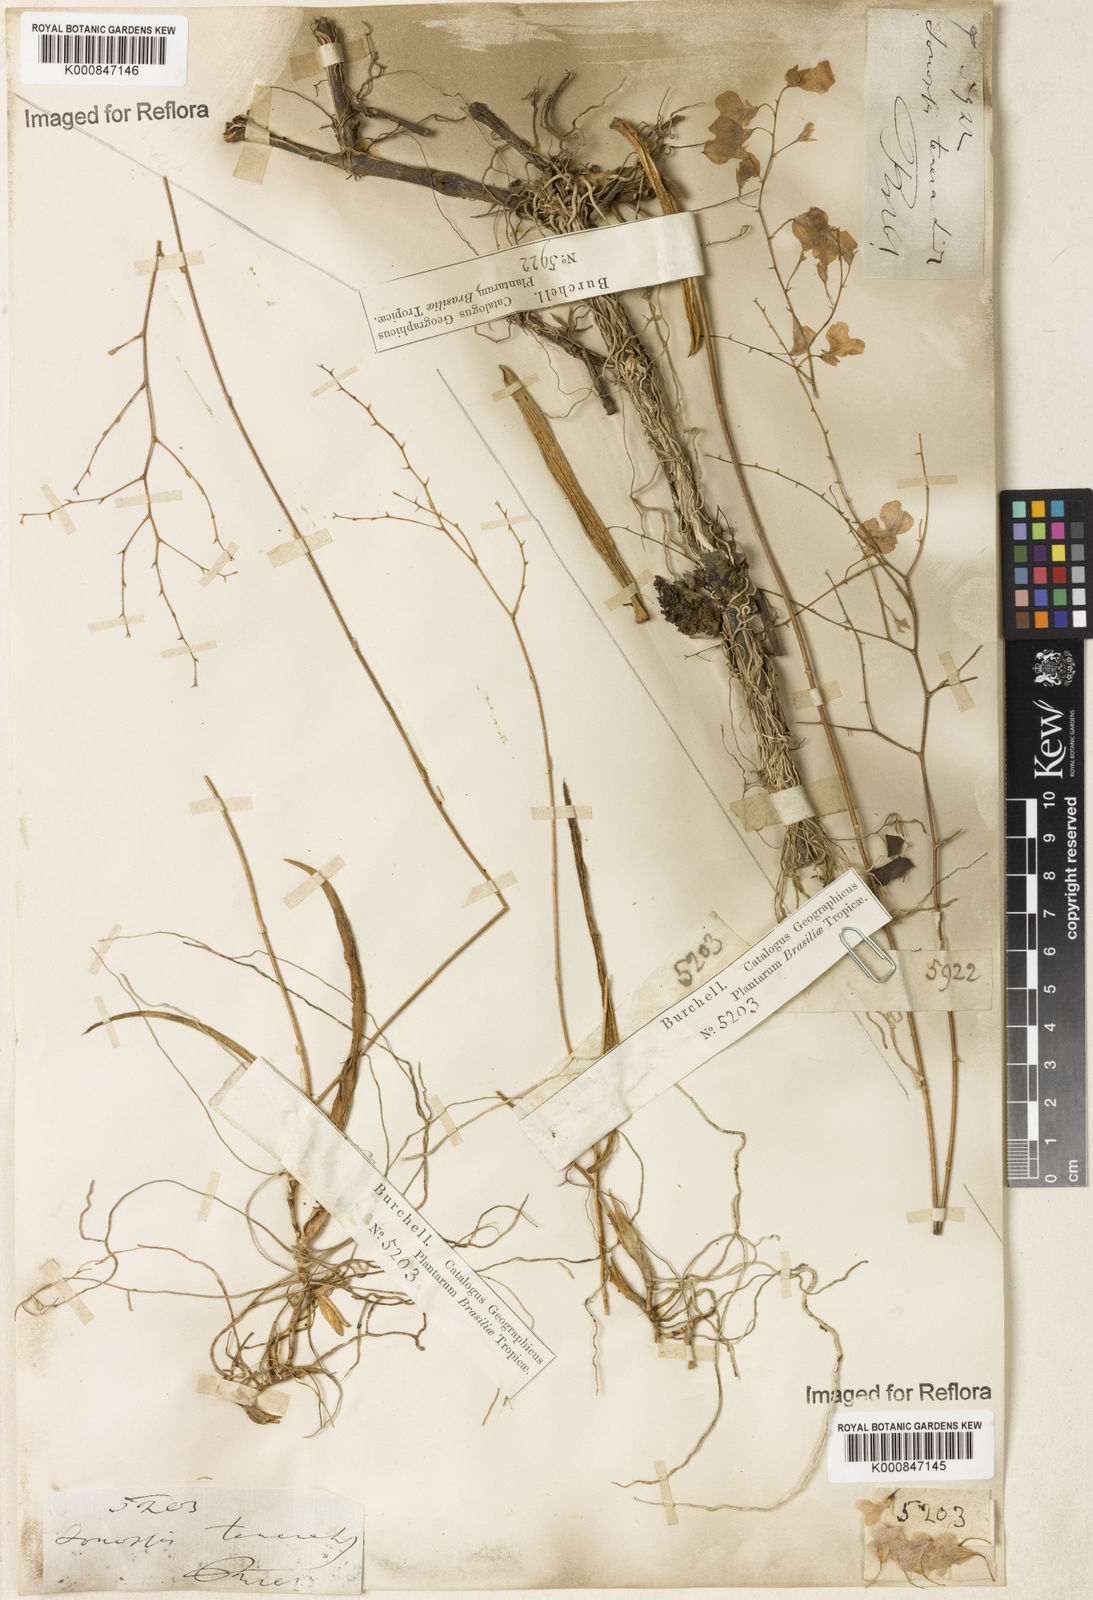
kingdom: Plantae
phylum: Tracheophyta
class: Liliopsida
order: Asparagales
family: Orchidaceae
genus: Ionopsis
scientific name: Ionopsis utricularioides
